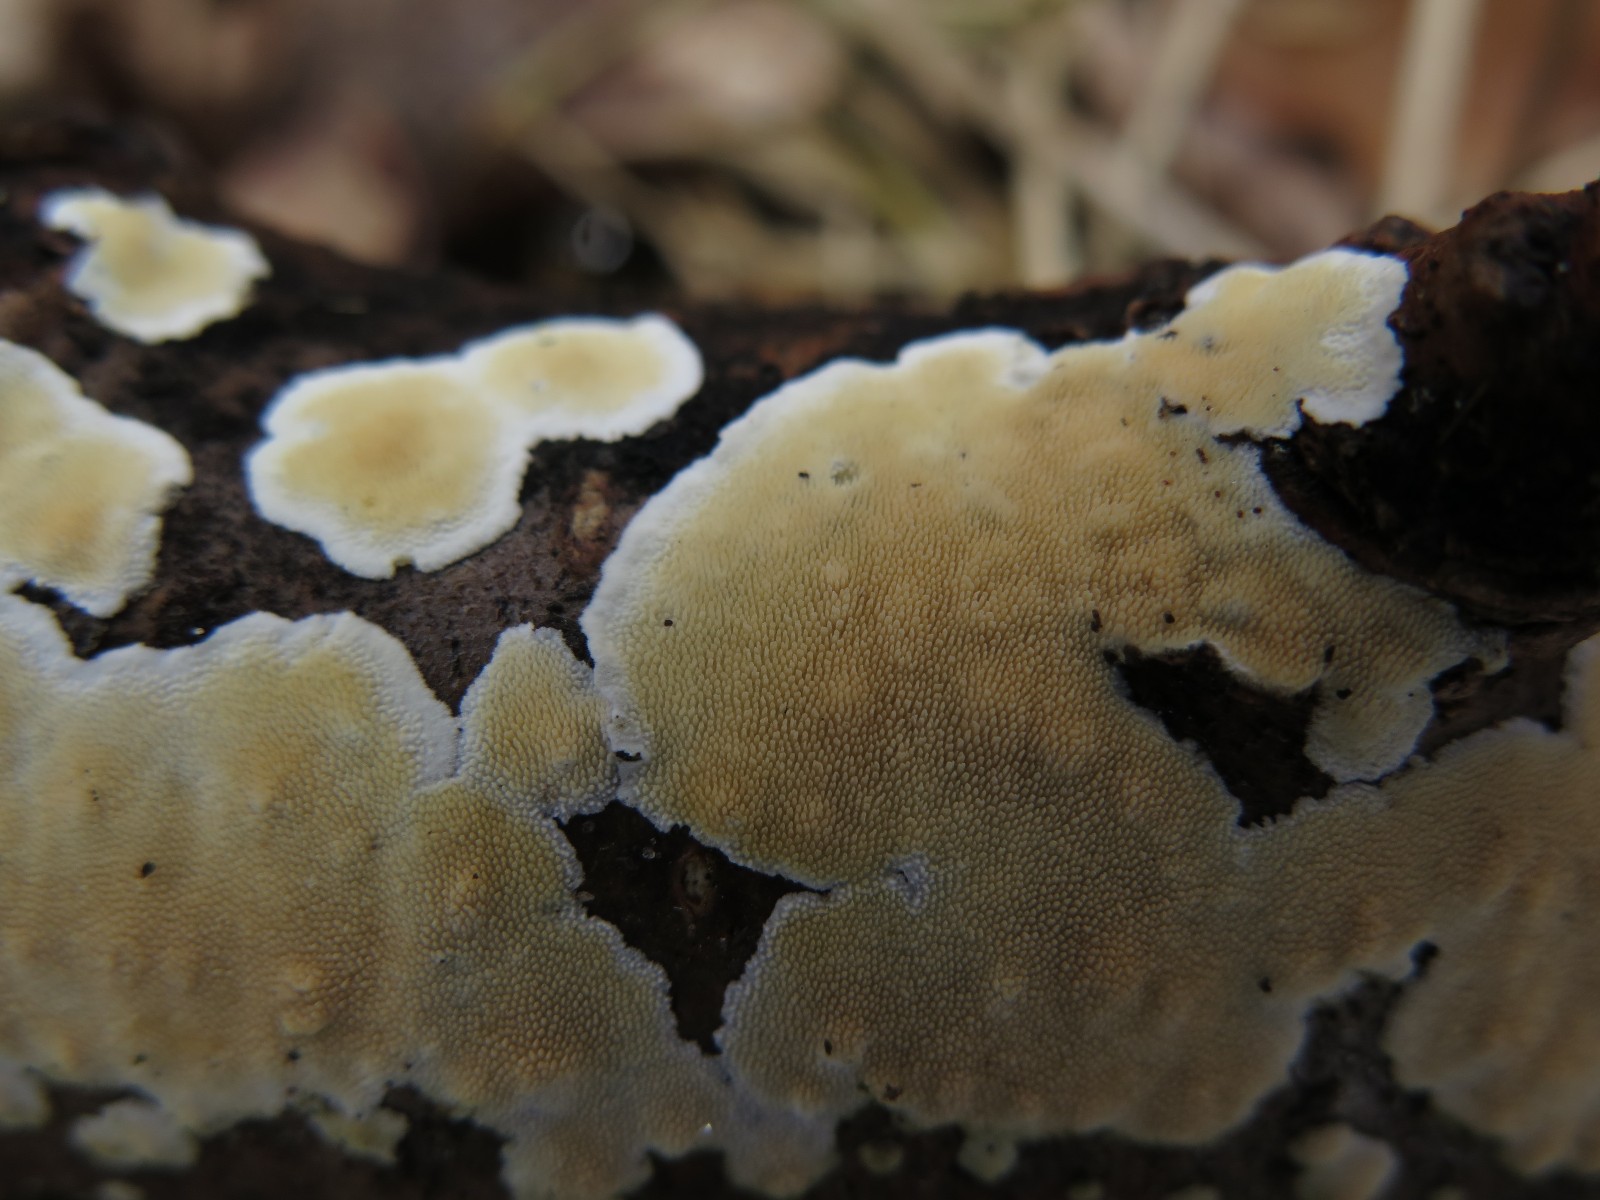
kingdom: Fungi
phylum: Basidiomycota
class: Agaricomycetes
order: Polyporales
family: Steccherinaceae
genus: Steccherinum
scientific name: Steccherinum ochraceum
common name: almindelig skønpig
